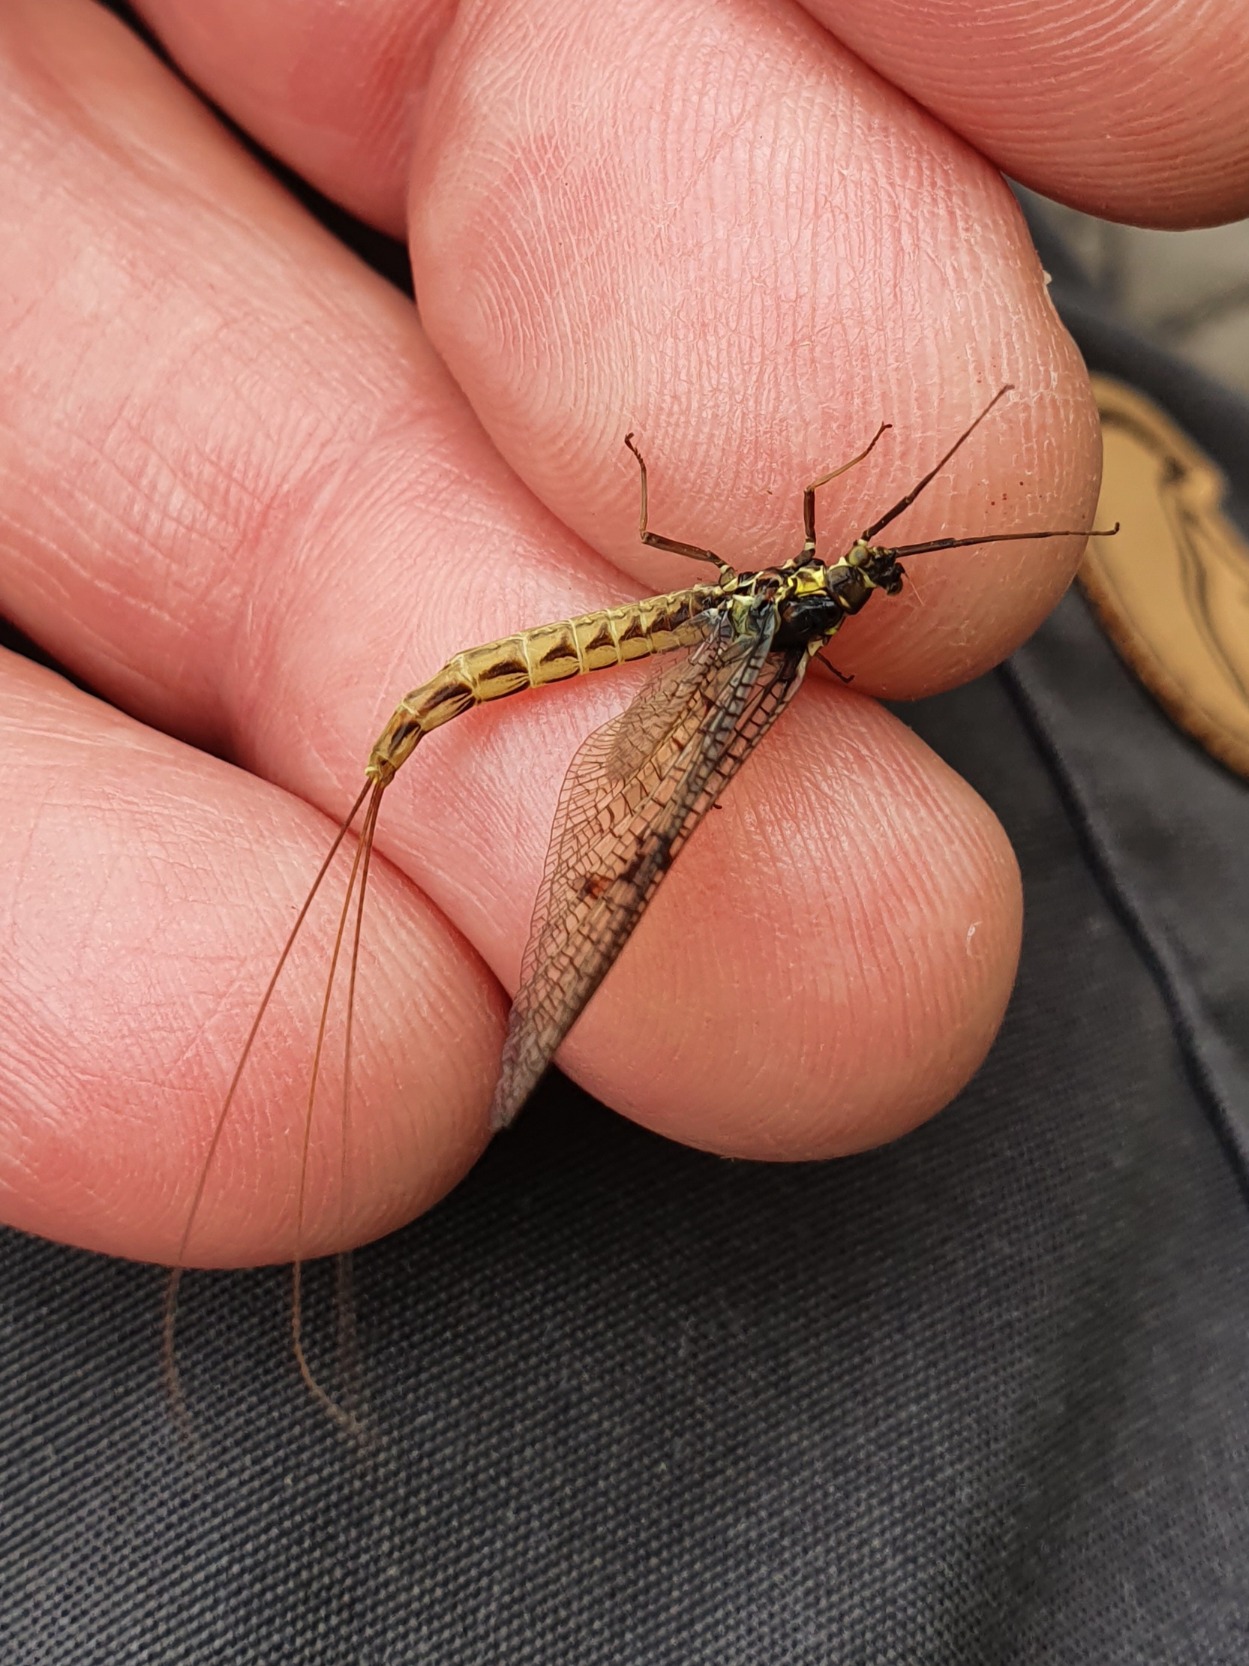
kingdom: Animalia
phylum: Arthropoda
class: Insecta
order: Ephemeroptera
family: Ephemeridae
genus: Ephemera
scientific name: Ephemera vulgata
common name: Sø-majflue
